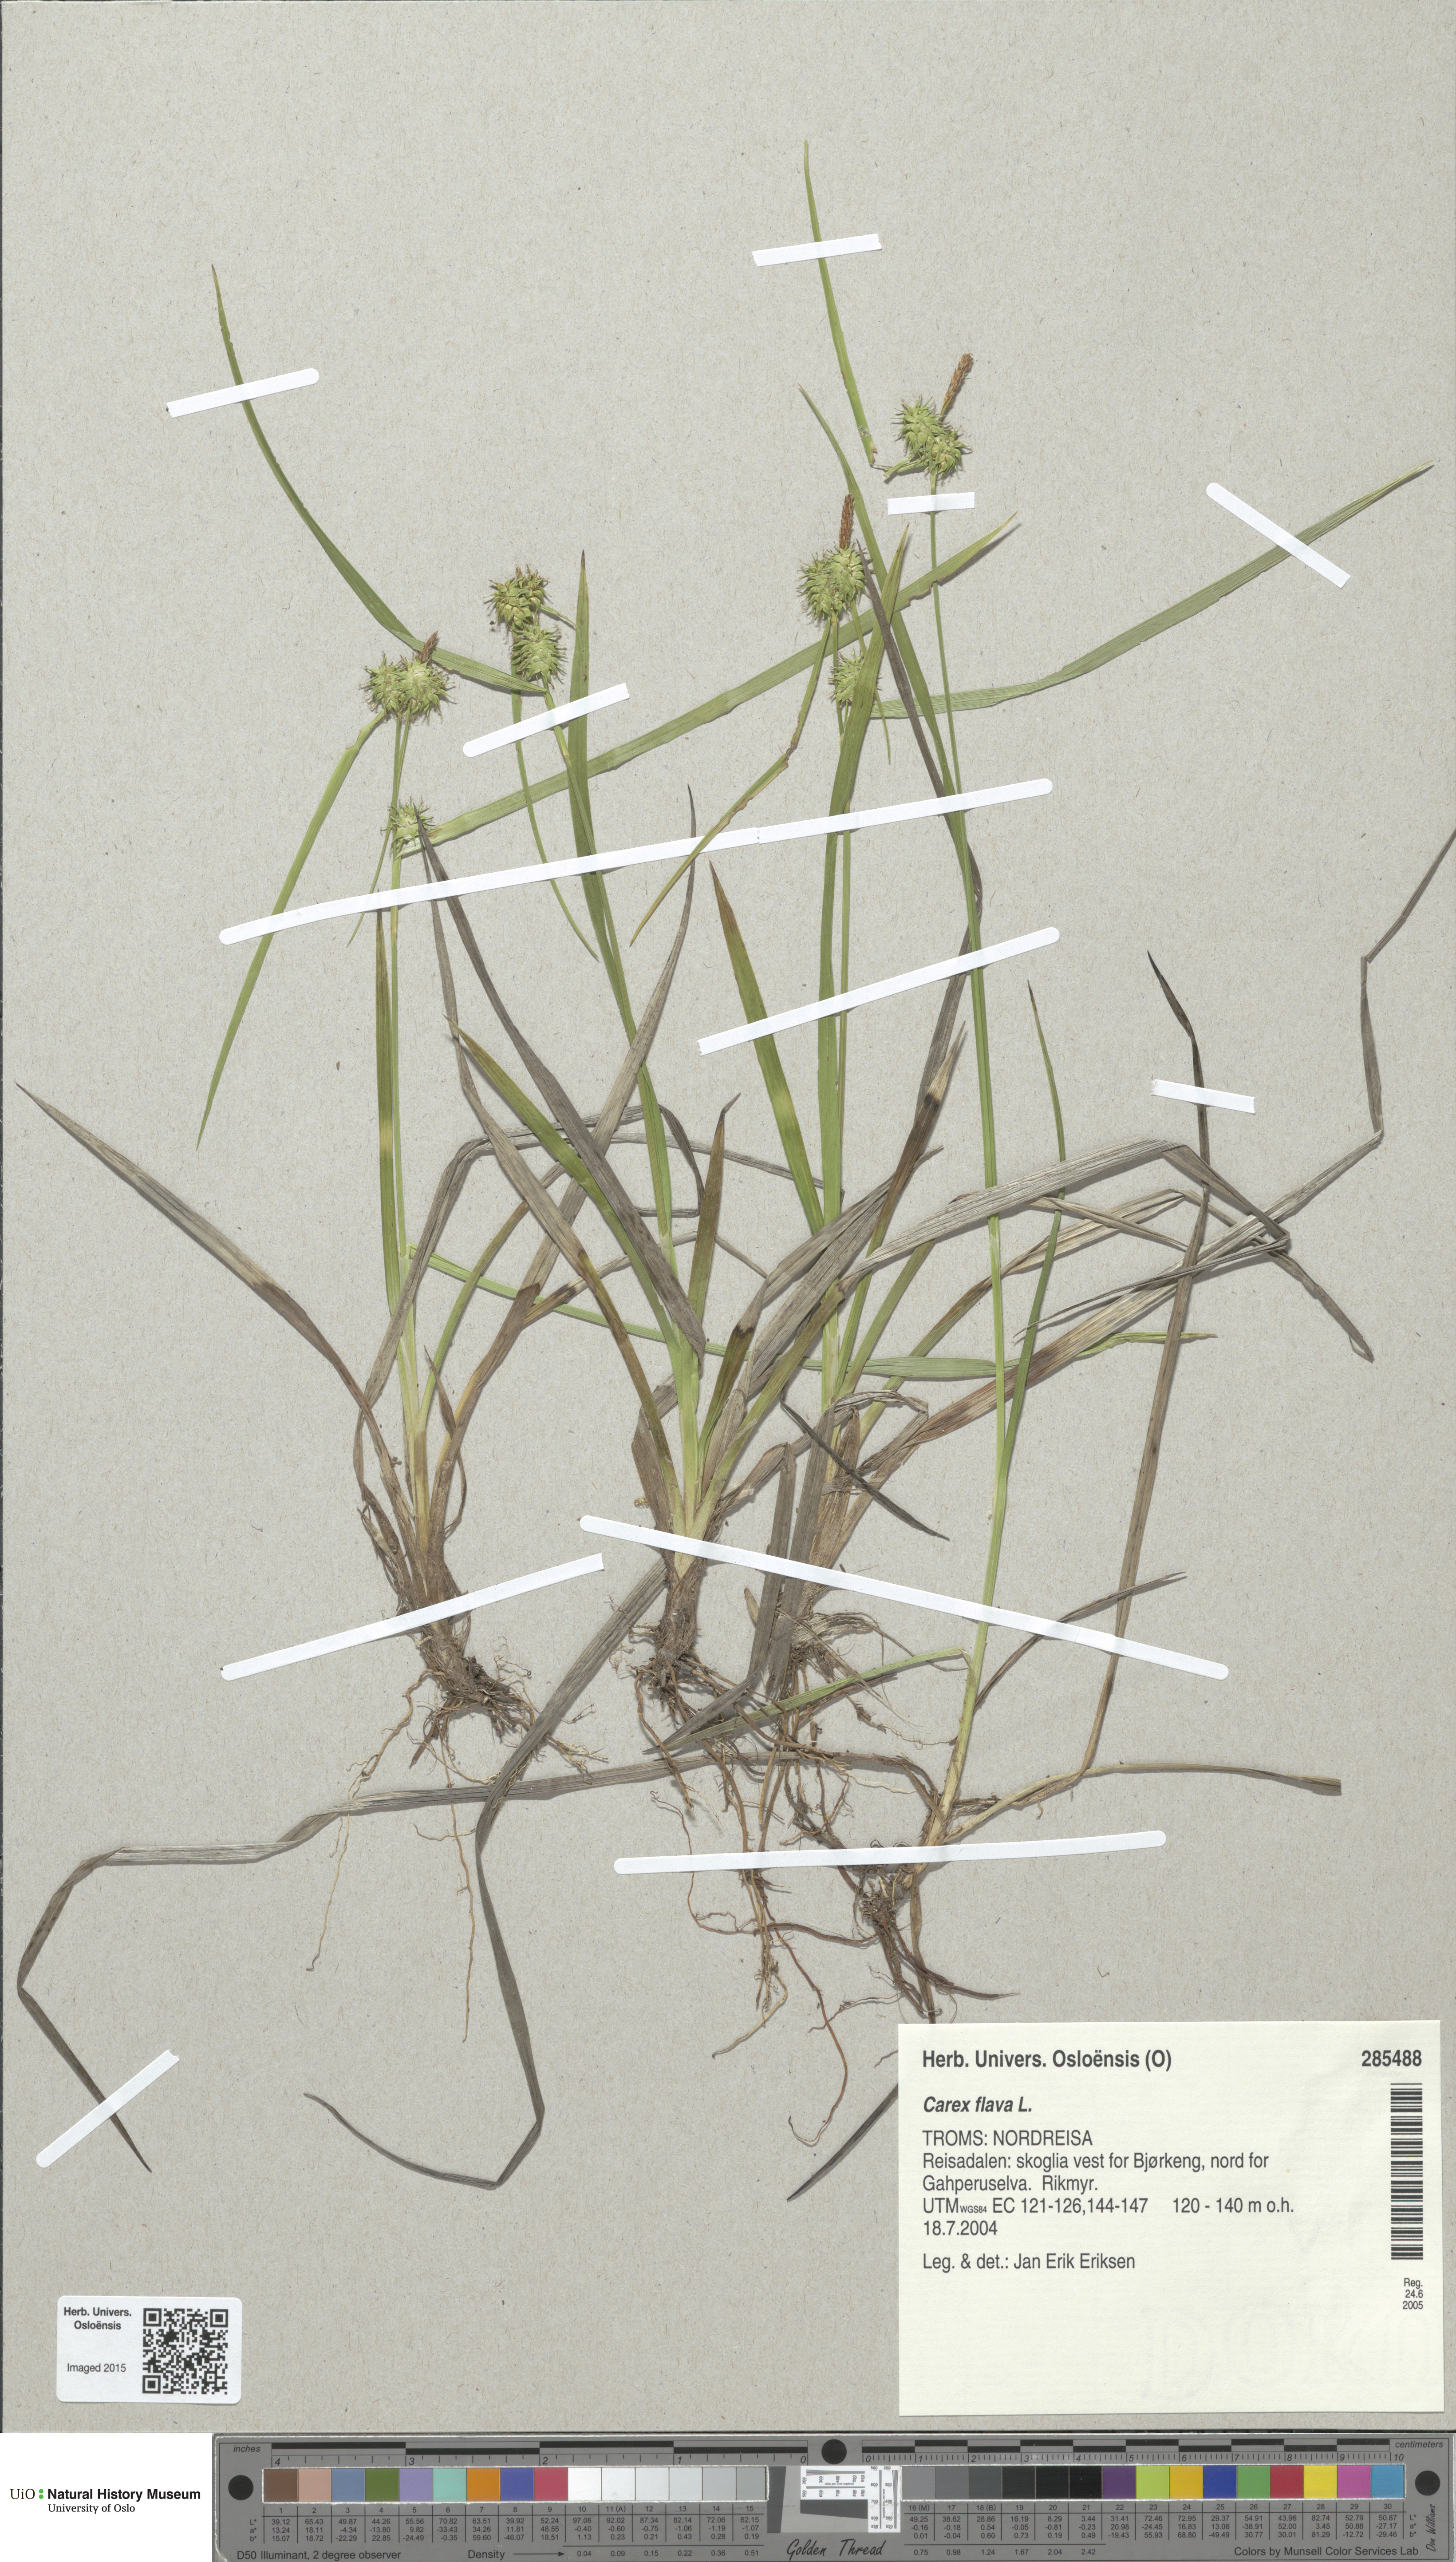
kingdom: Plantae
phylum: Tracheophyta
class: Liliopsida
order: Poales
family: Cyperaceae
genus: Carex
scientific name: Carex flava
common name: Large yellow-sedge
